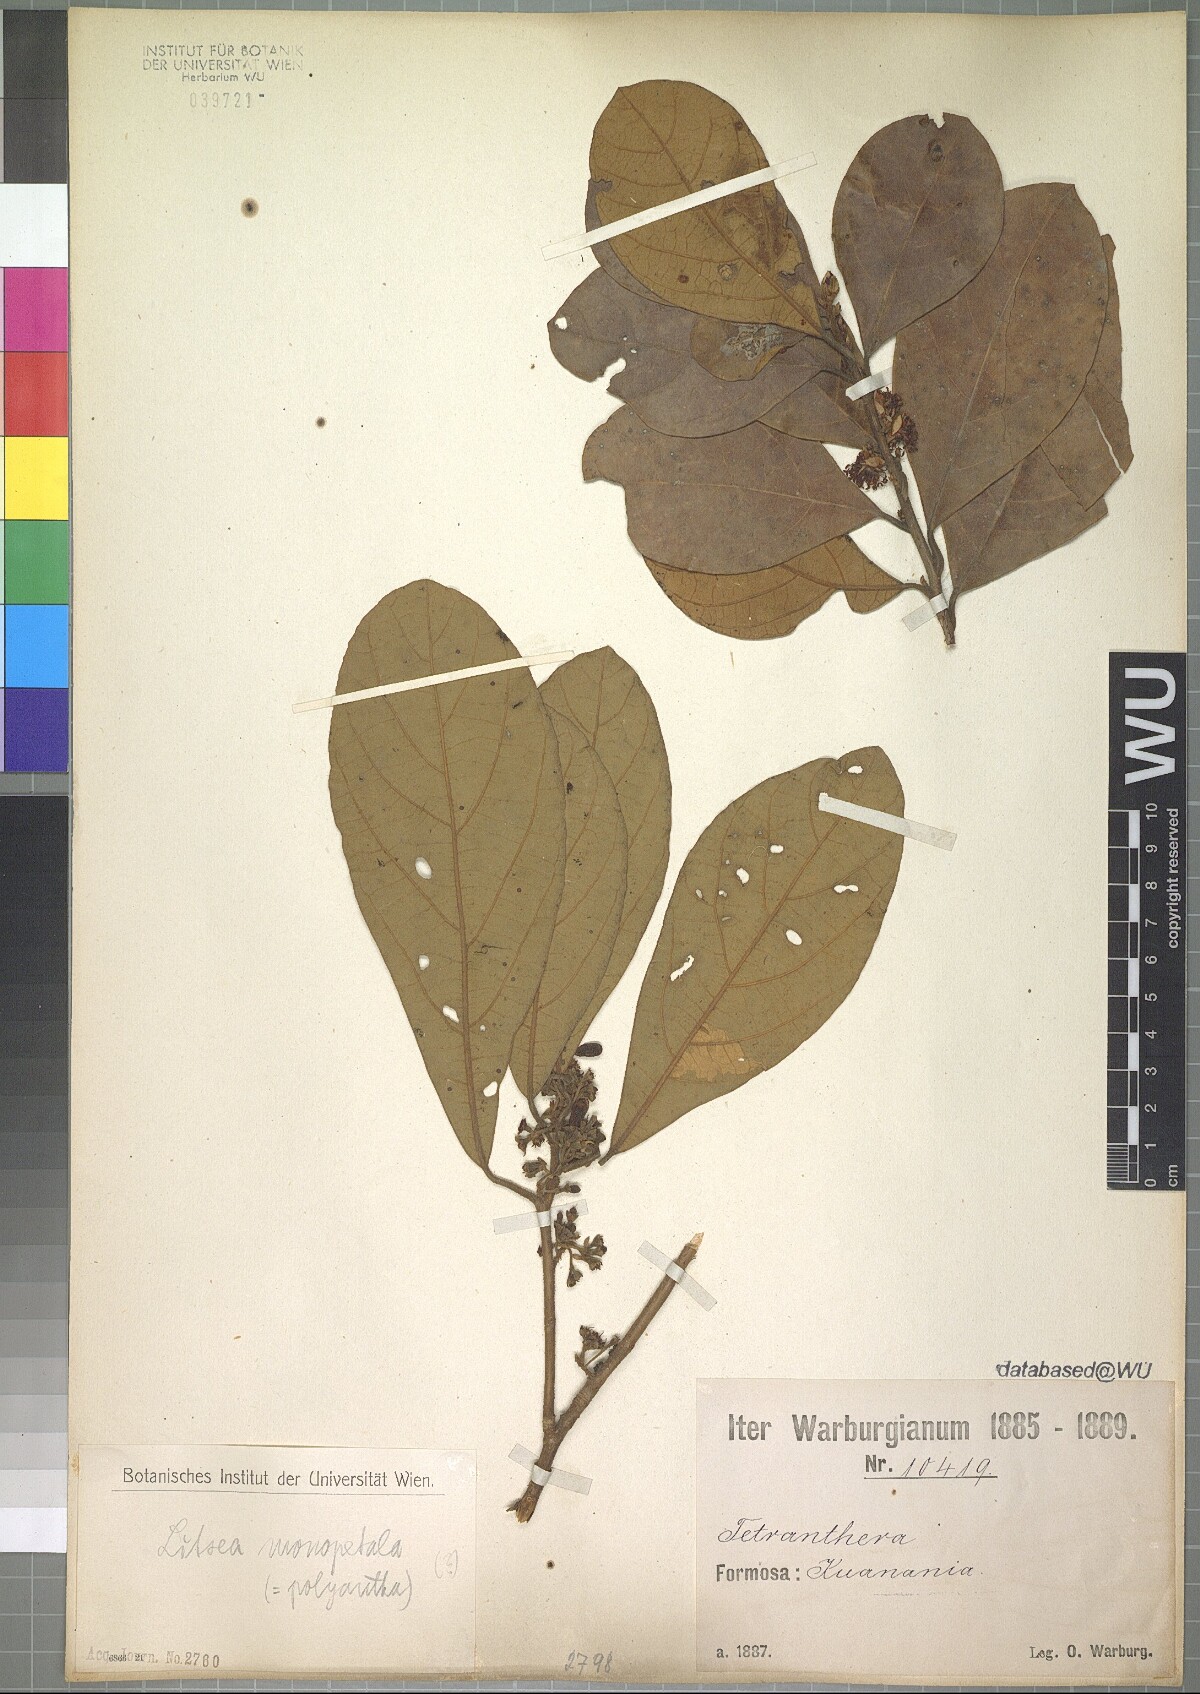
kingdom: Plantae
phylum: Tracheophyta
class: Magnoliopsida
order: Laurales
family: Lauraceae
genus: Litsea
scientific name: Litsea monopetala
